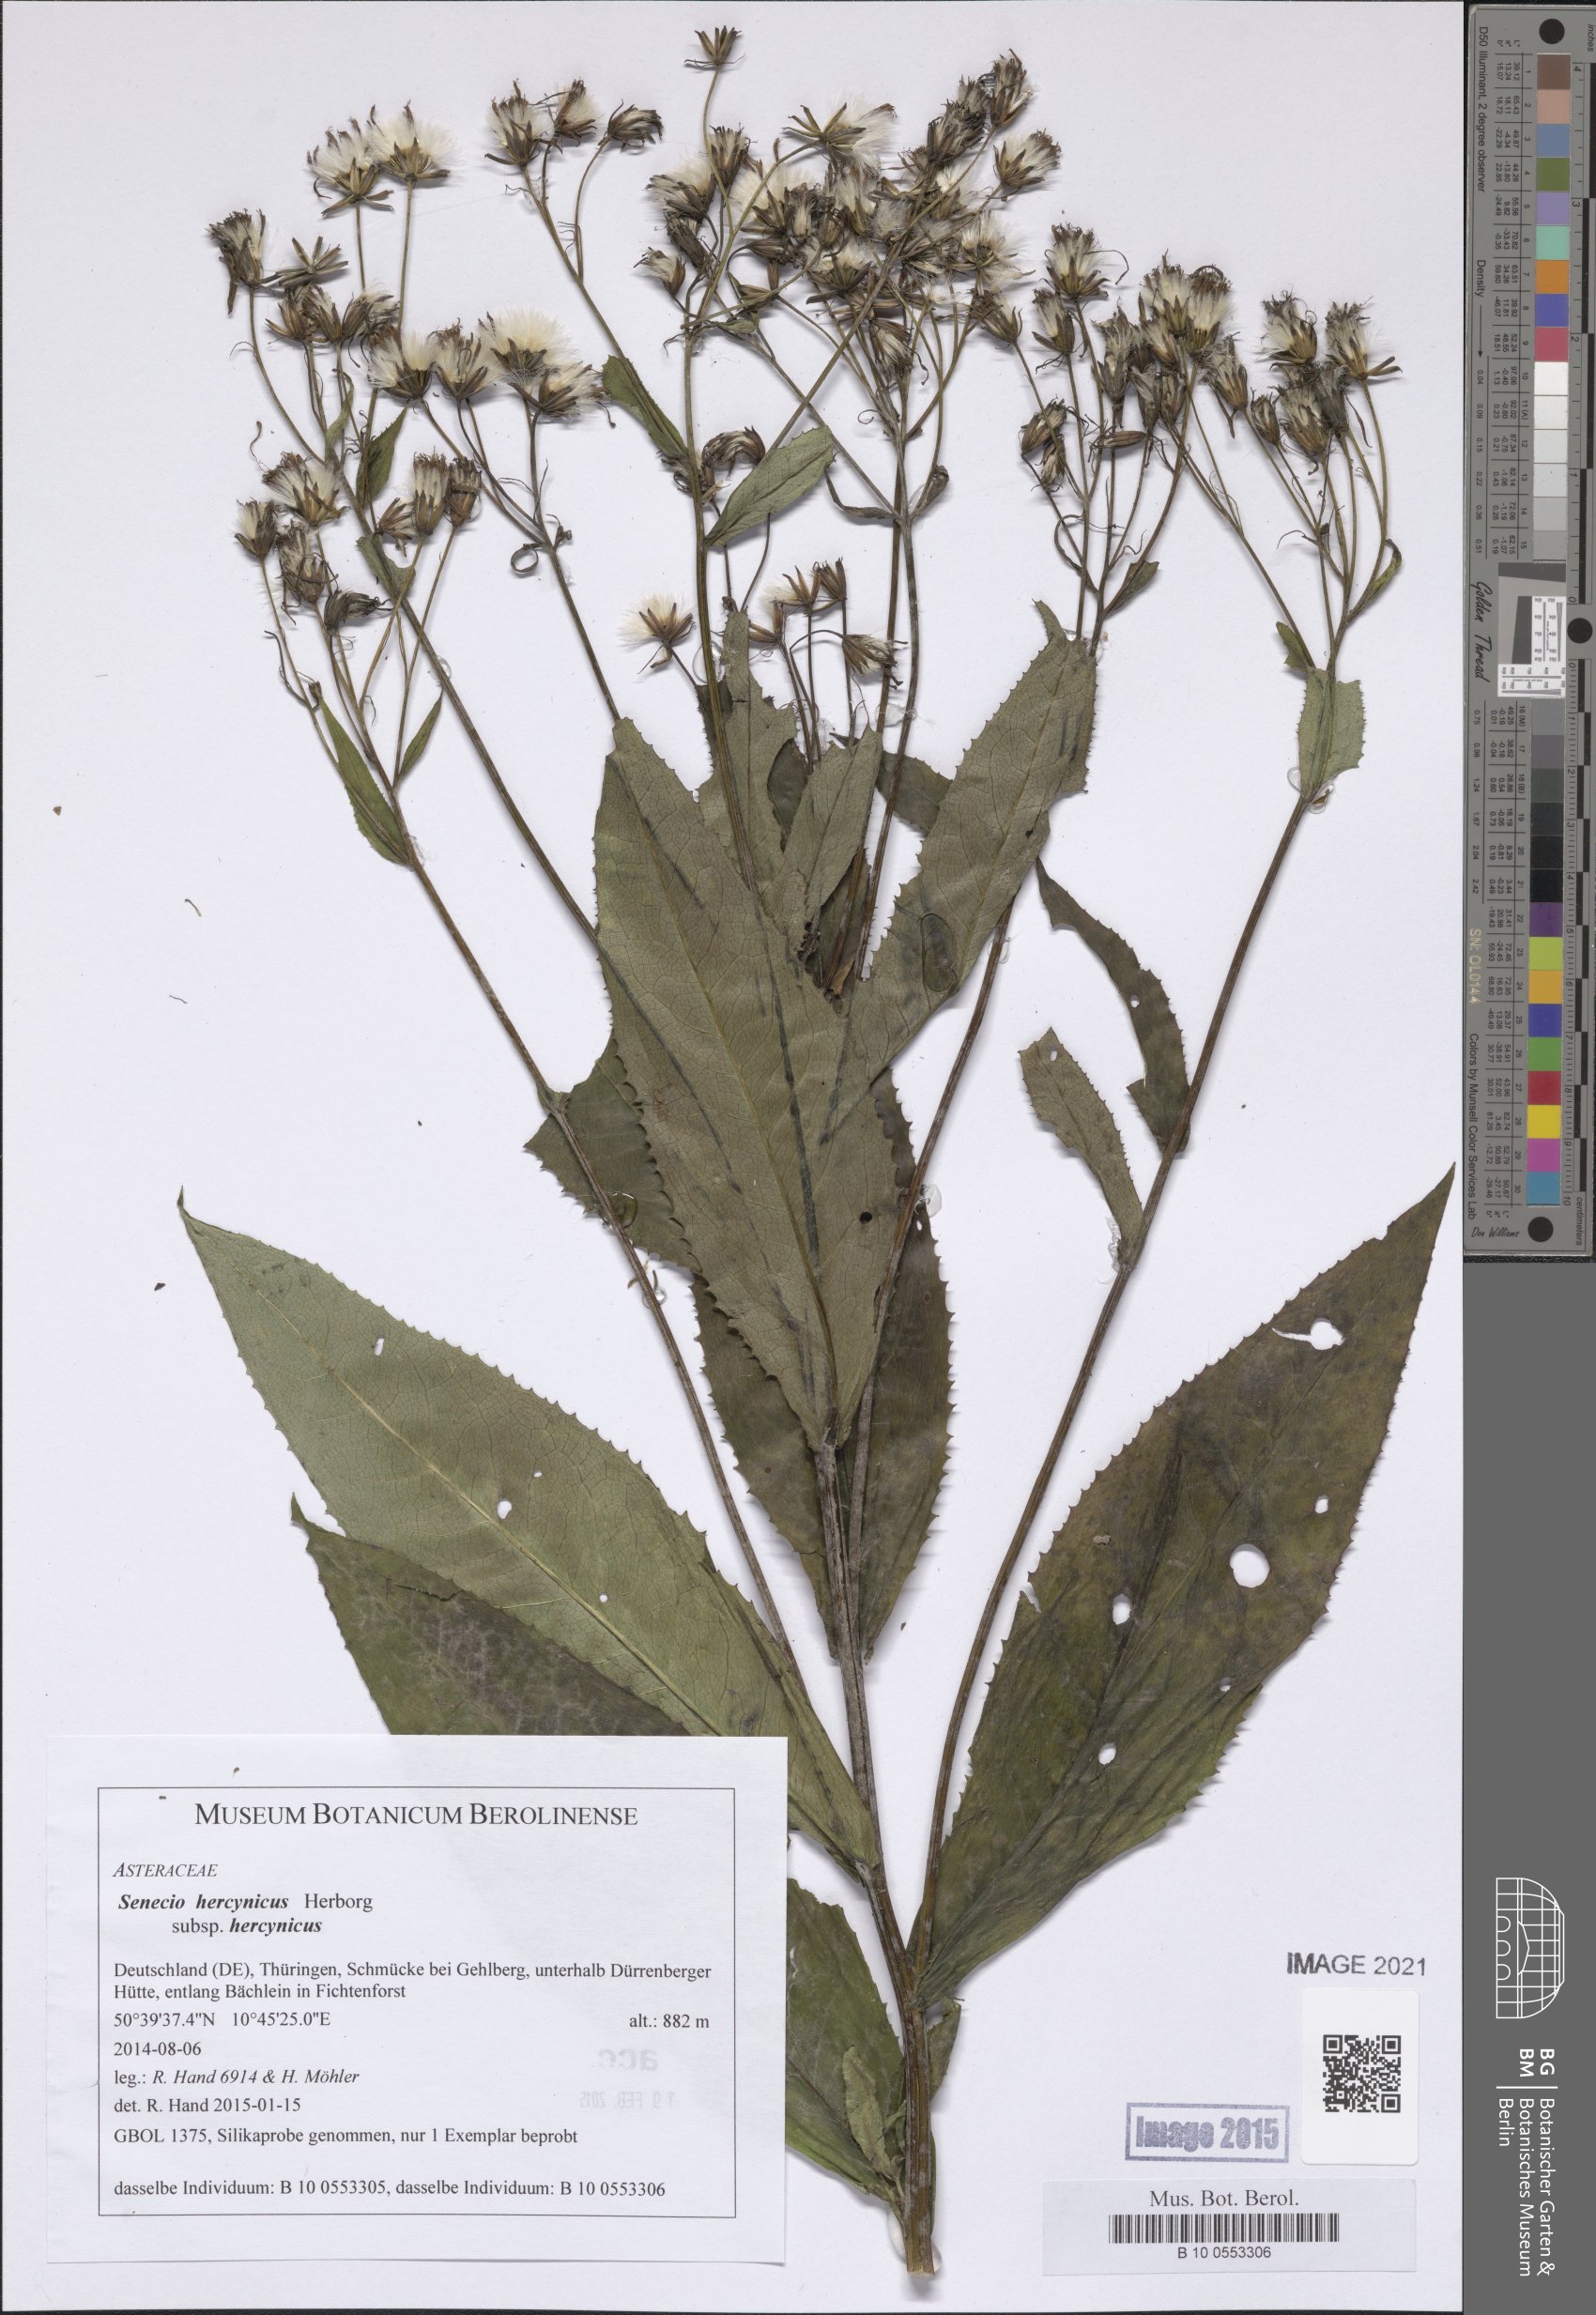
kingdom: Plantae
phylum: Tracheophyta
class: Magnoliopsida
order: Asterales
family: Asteraceae
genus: Senecio
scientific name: Senecio hercynicus
